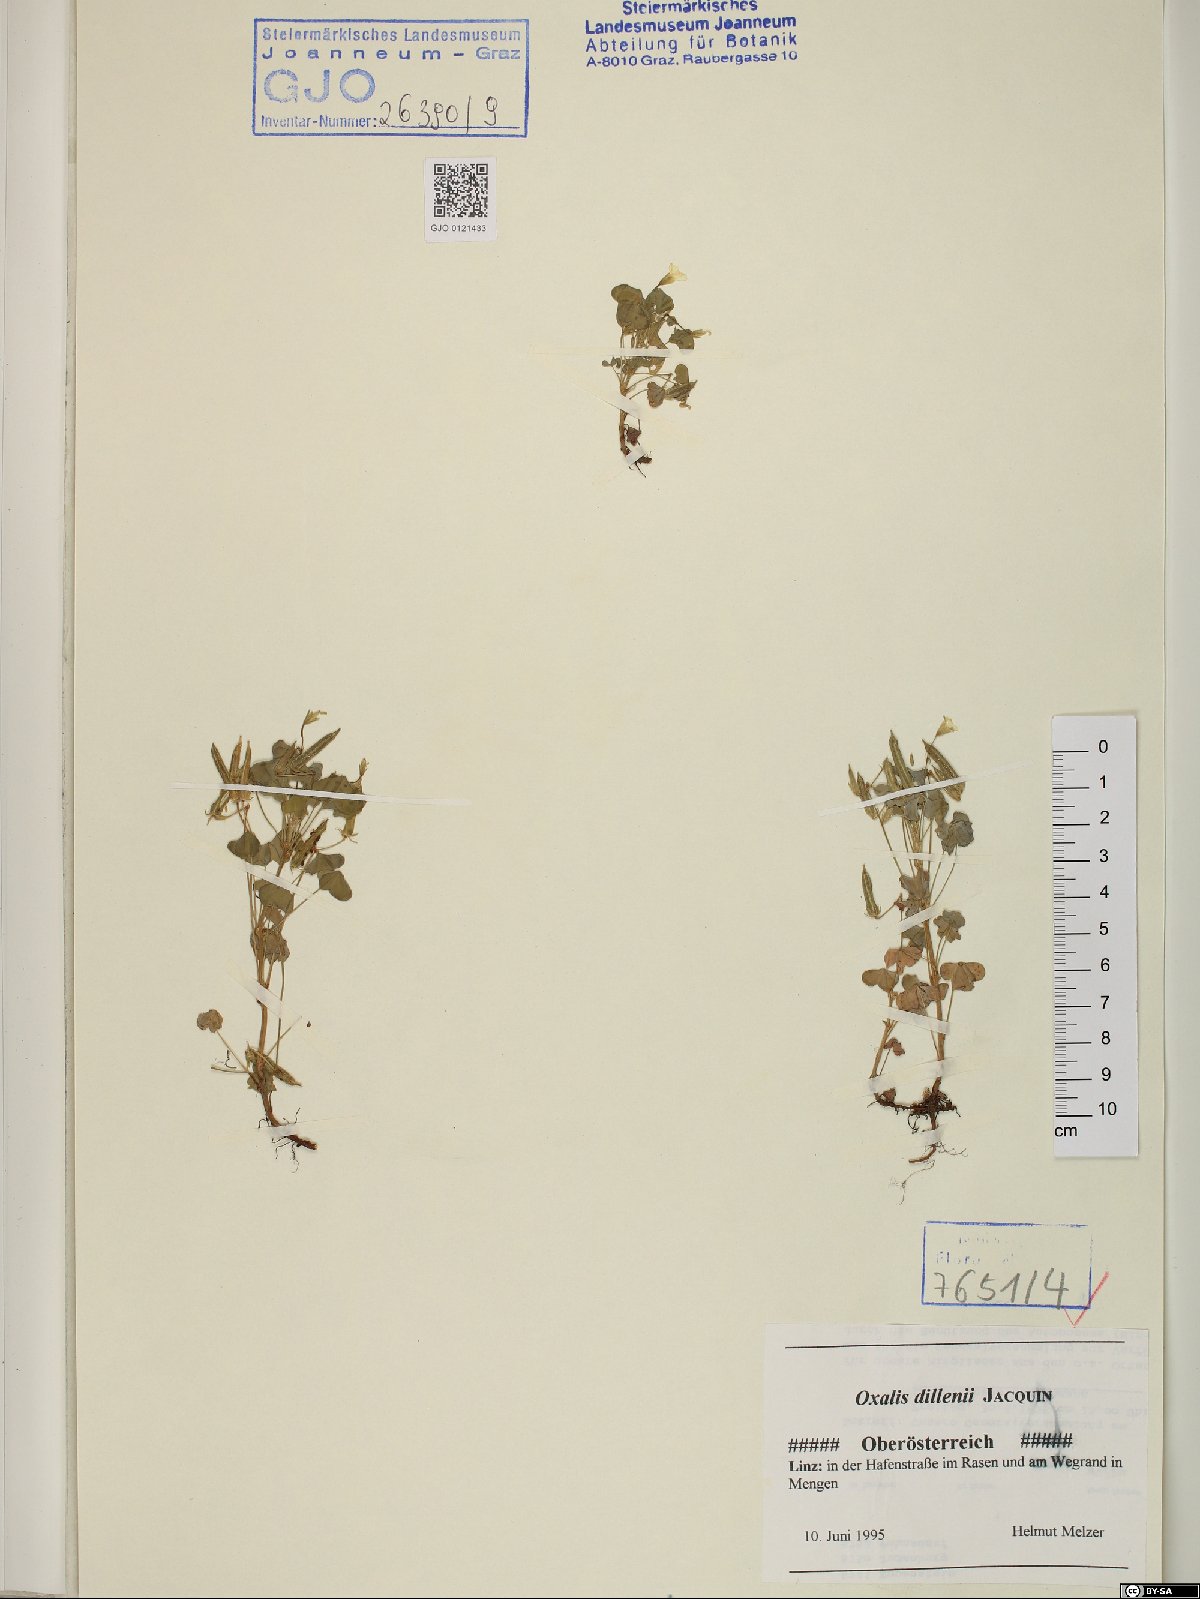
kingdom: Plantae
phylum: Tracheophyta
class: Magnoliopsida
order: Oxalidales
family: Oxalidaceae
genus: Oxalis
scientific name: Oxalis dillenii
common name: Sussex yellow-sorrel
